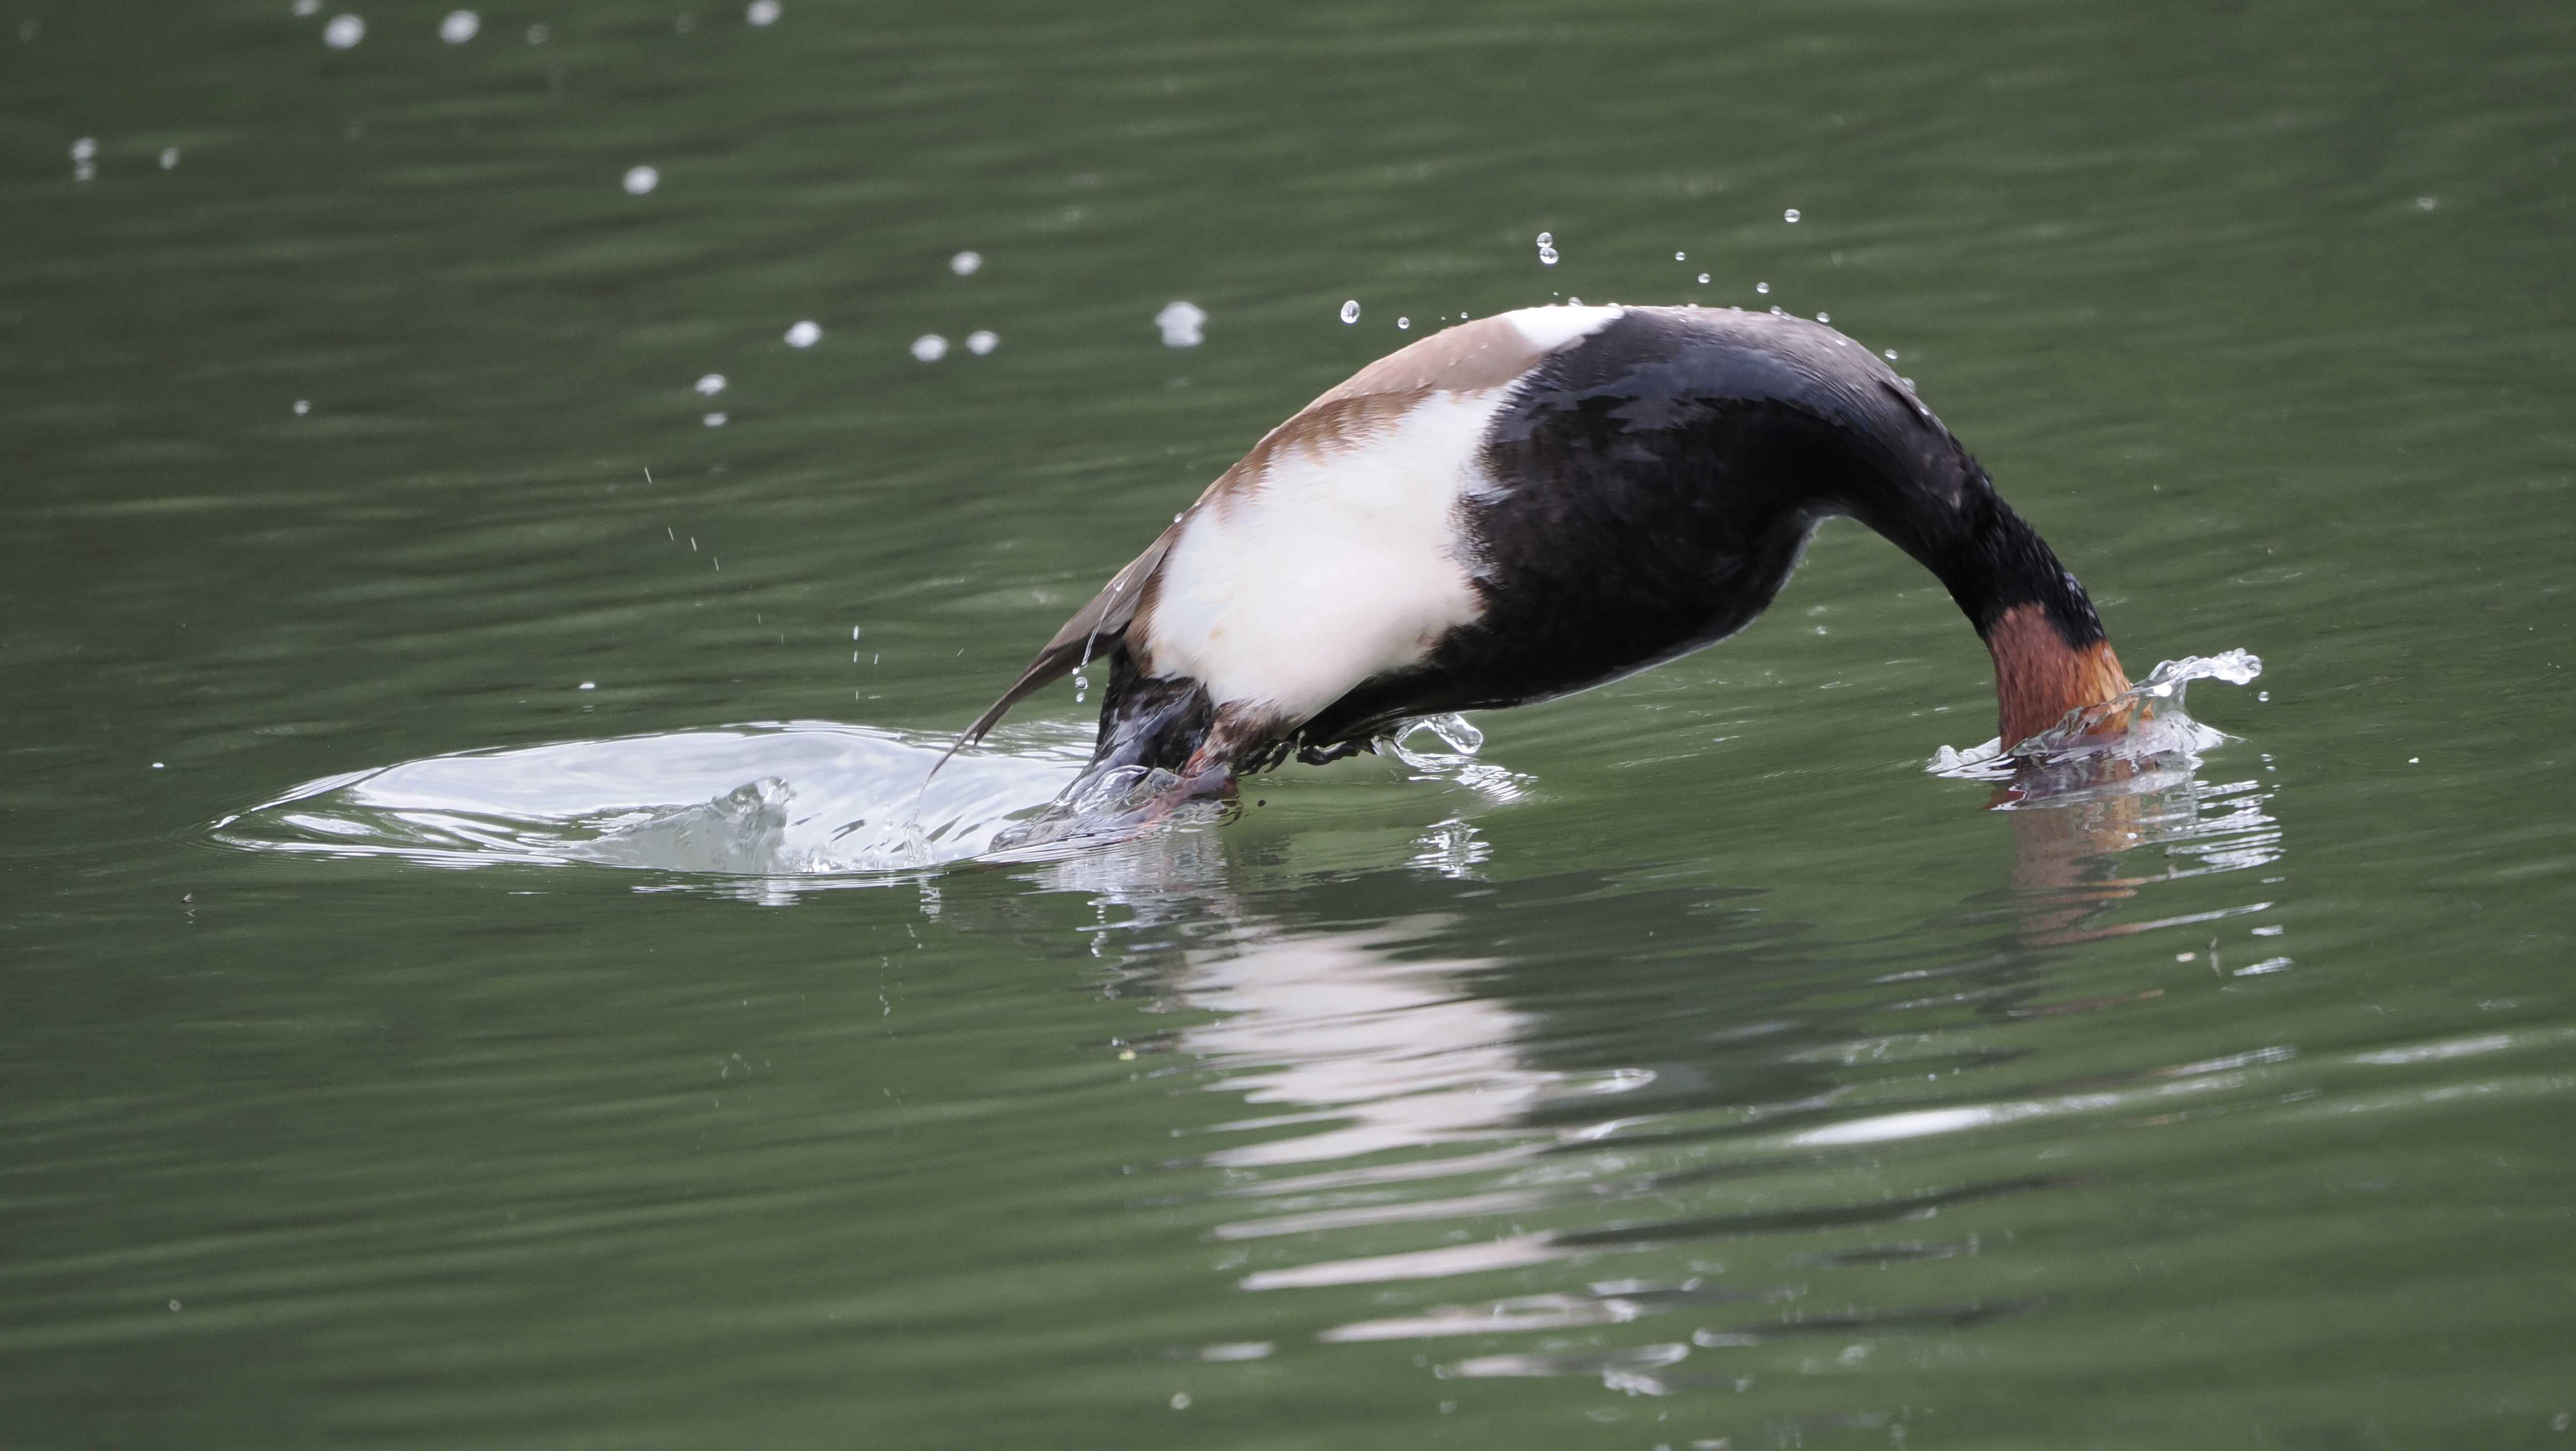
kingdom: Animalia
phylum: Chordata
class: Aves
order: Anseriformes
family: Anatidae
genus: Netta
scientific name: Netta rufina
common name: Rødhovedet and
